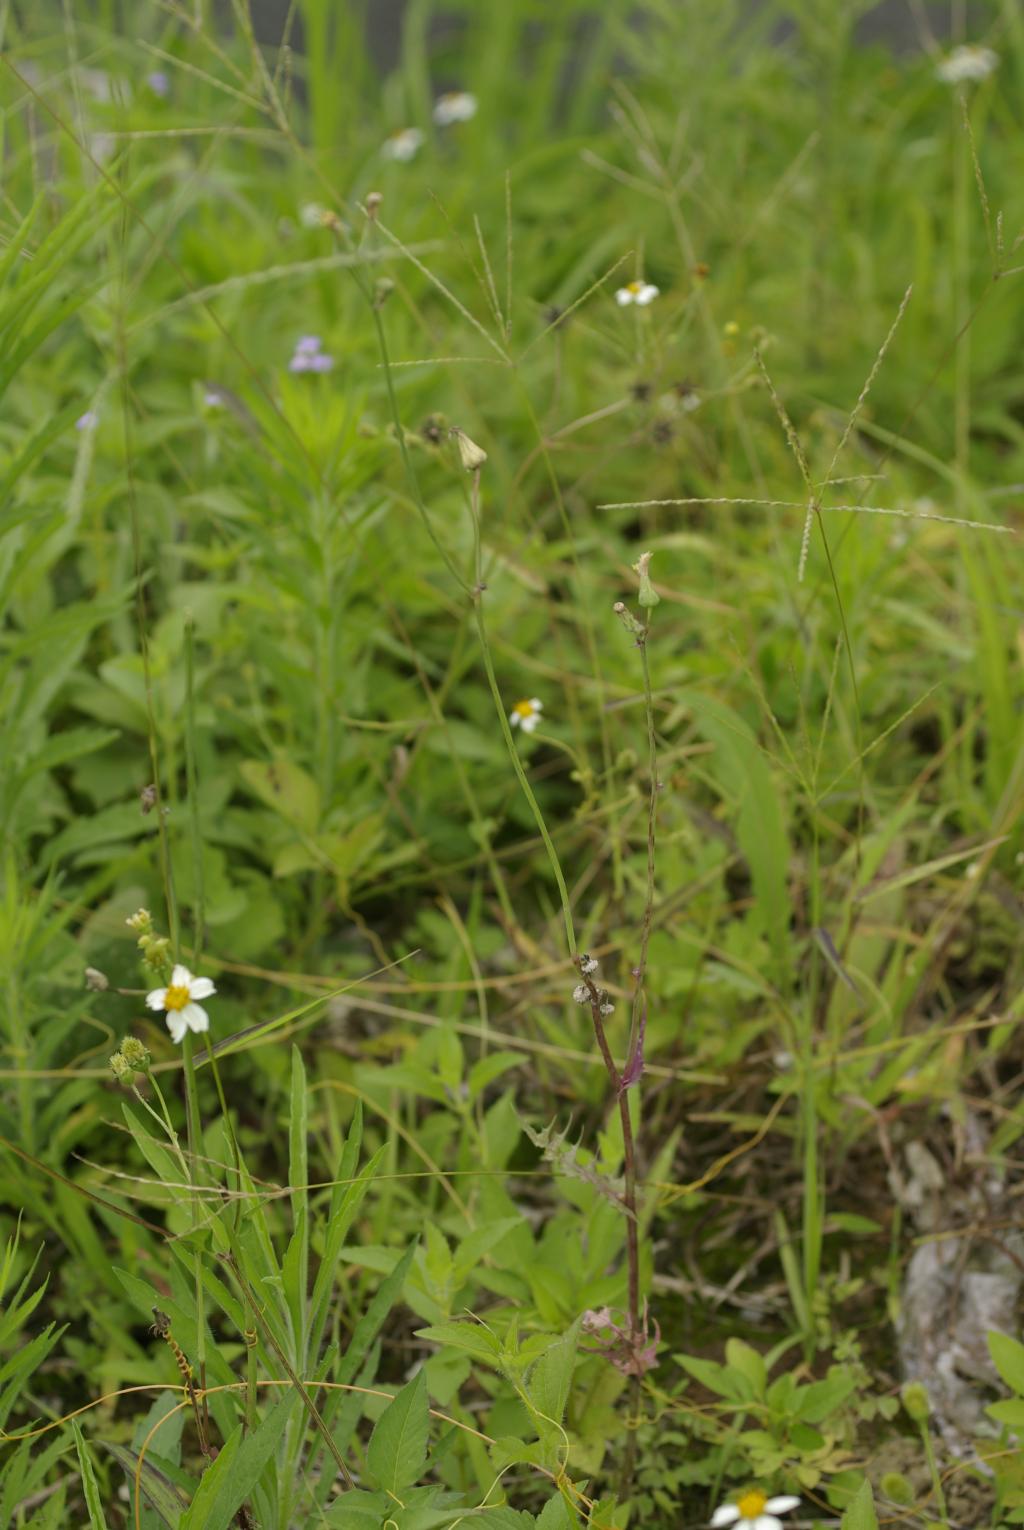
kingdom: Plantae
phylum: Tracheophyta
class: Magnoliopsida
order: Asterales
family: Asteraceae
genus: Sonchus
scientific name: Sonchus oleraceus
